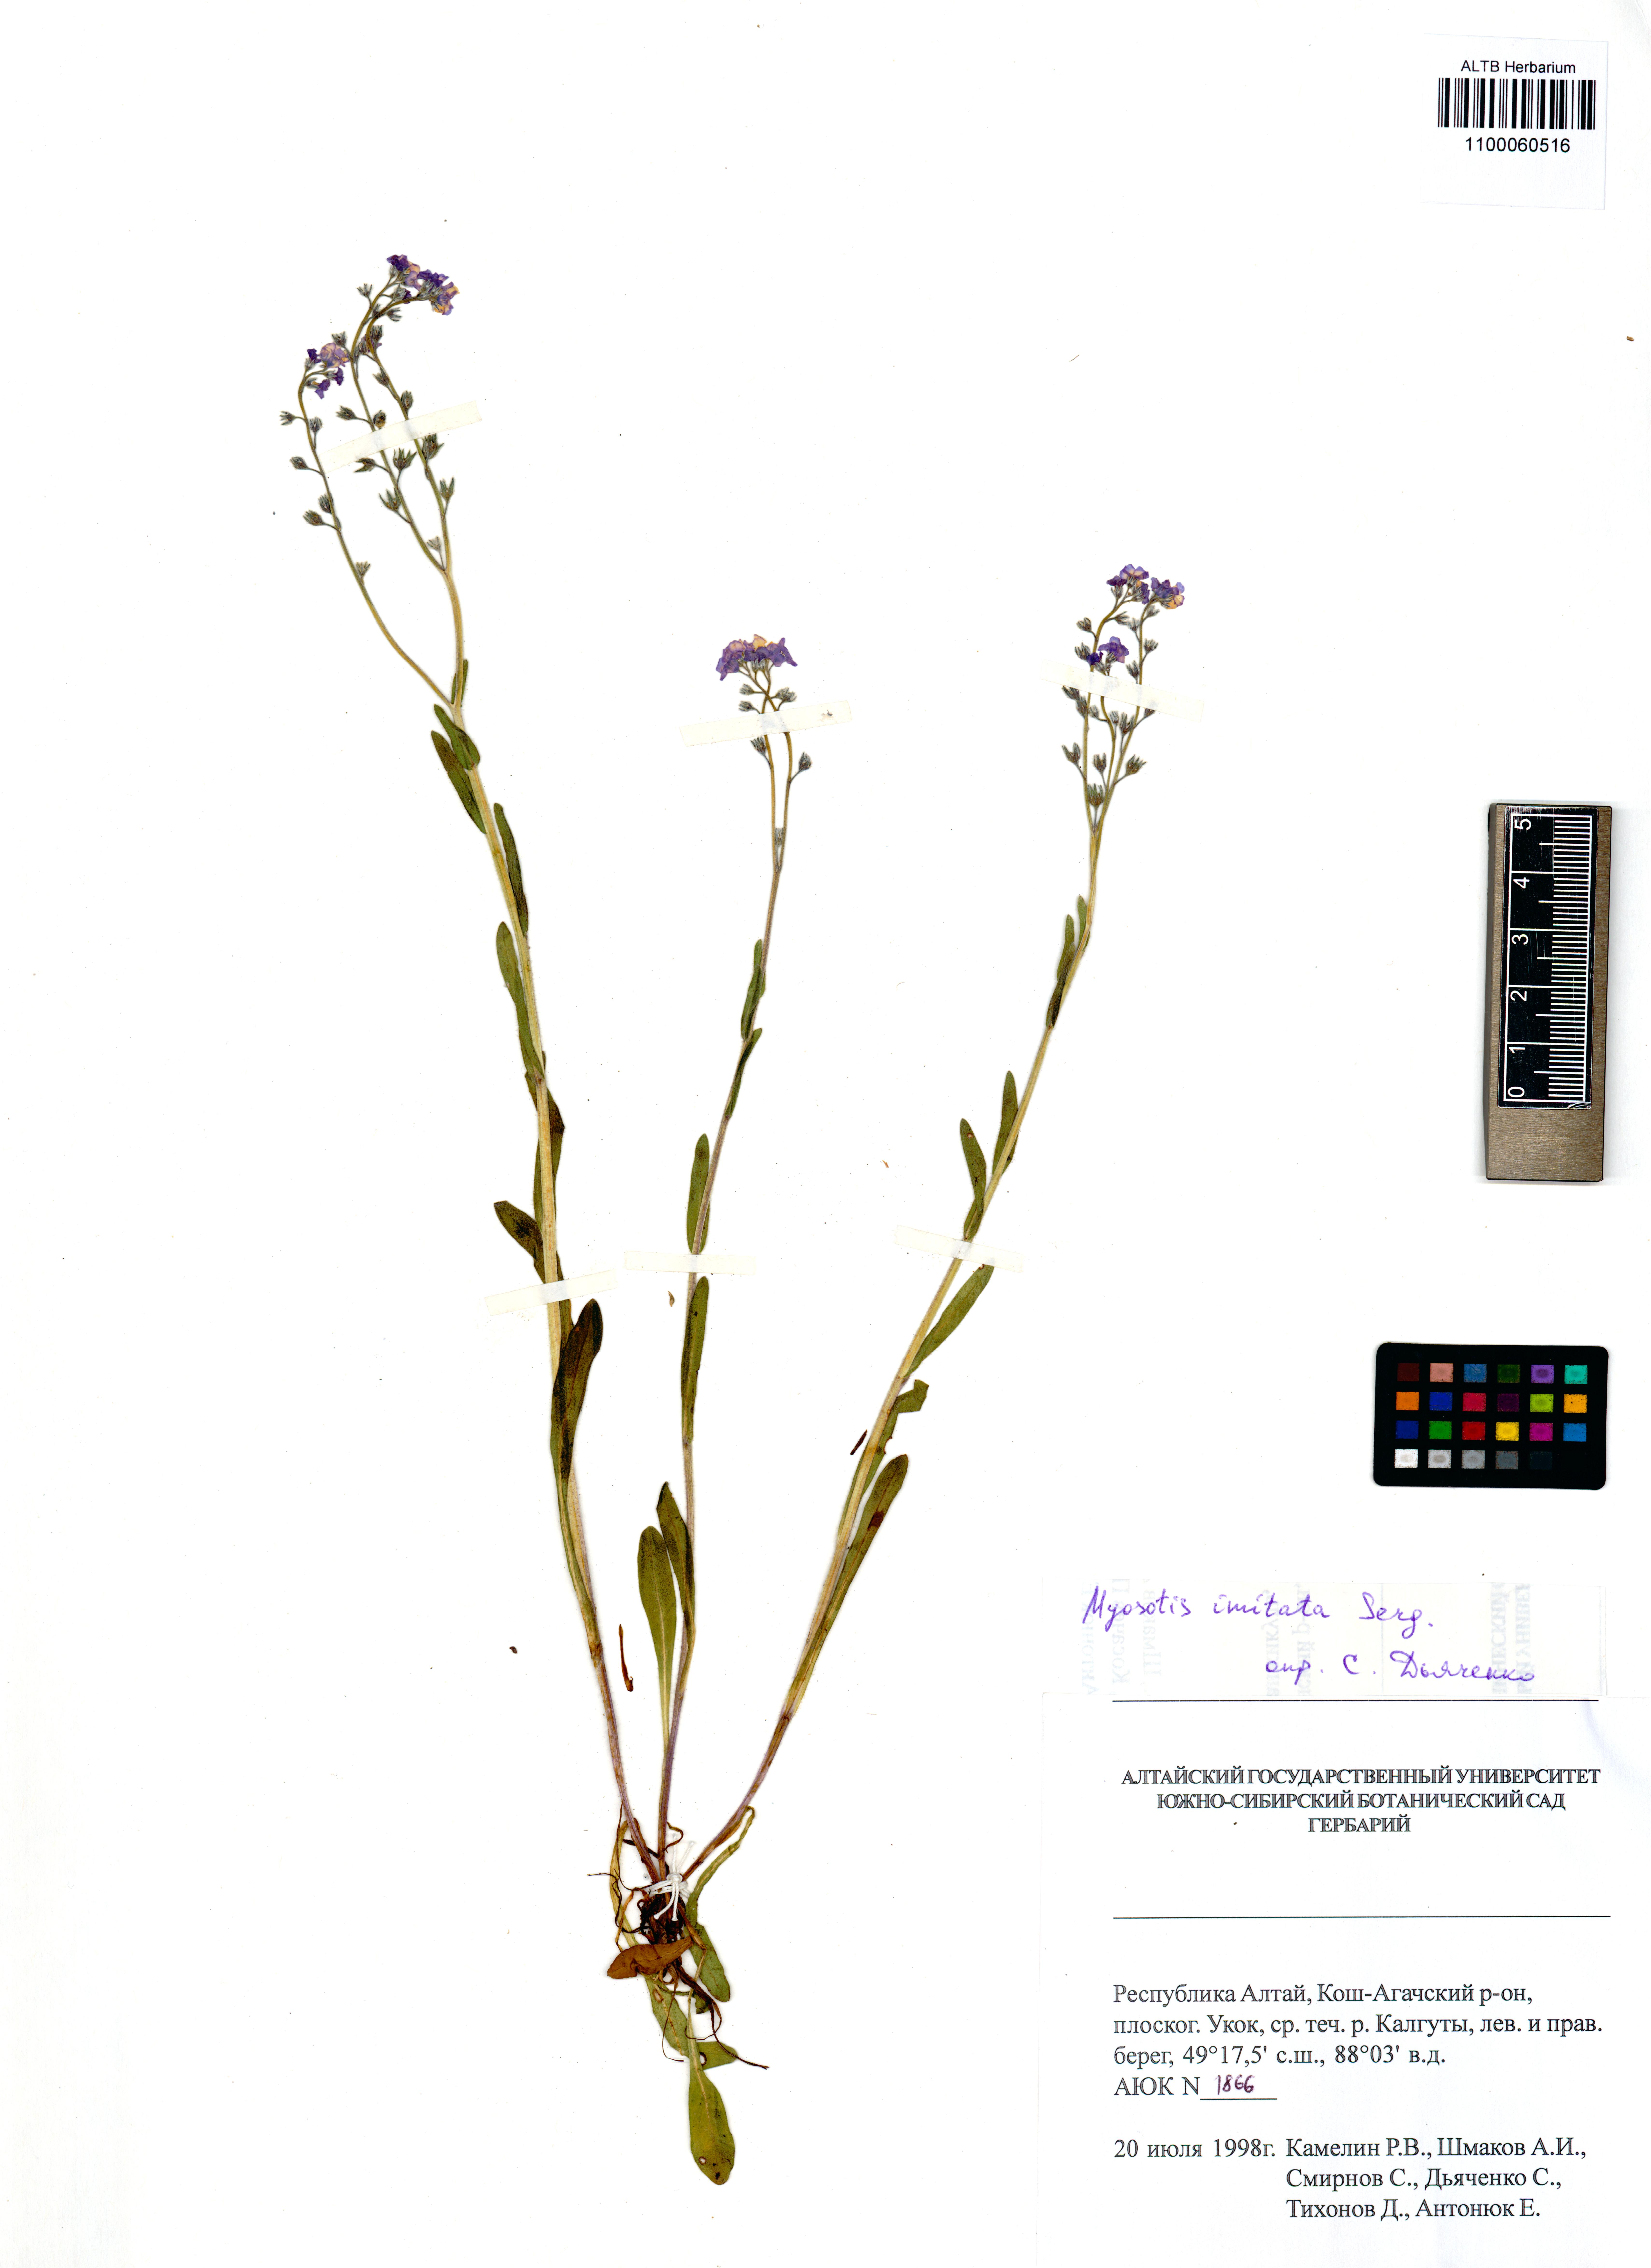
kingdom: Plantae
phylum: Tracheophyta
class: Magnoliopsida
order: Boraginales
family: Boraginaceae
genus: Myosotis
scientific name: Myosotis imitata
